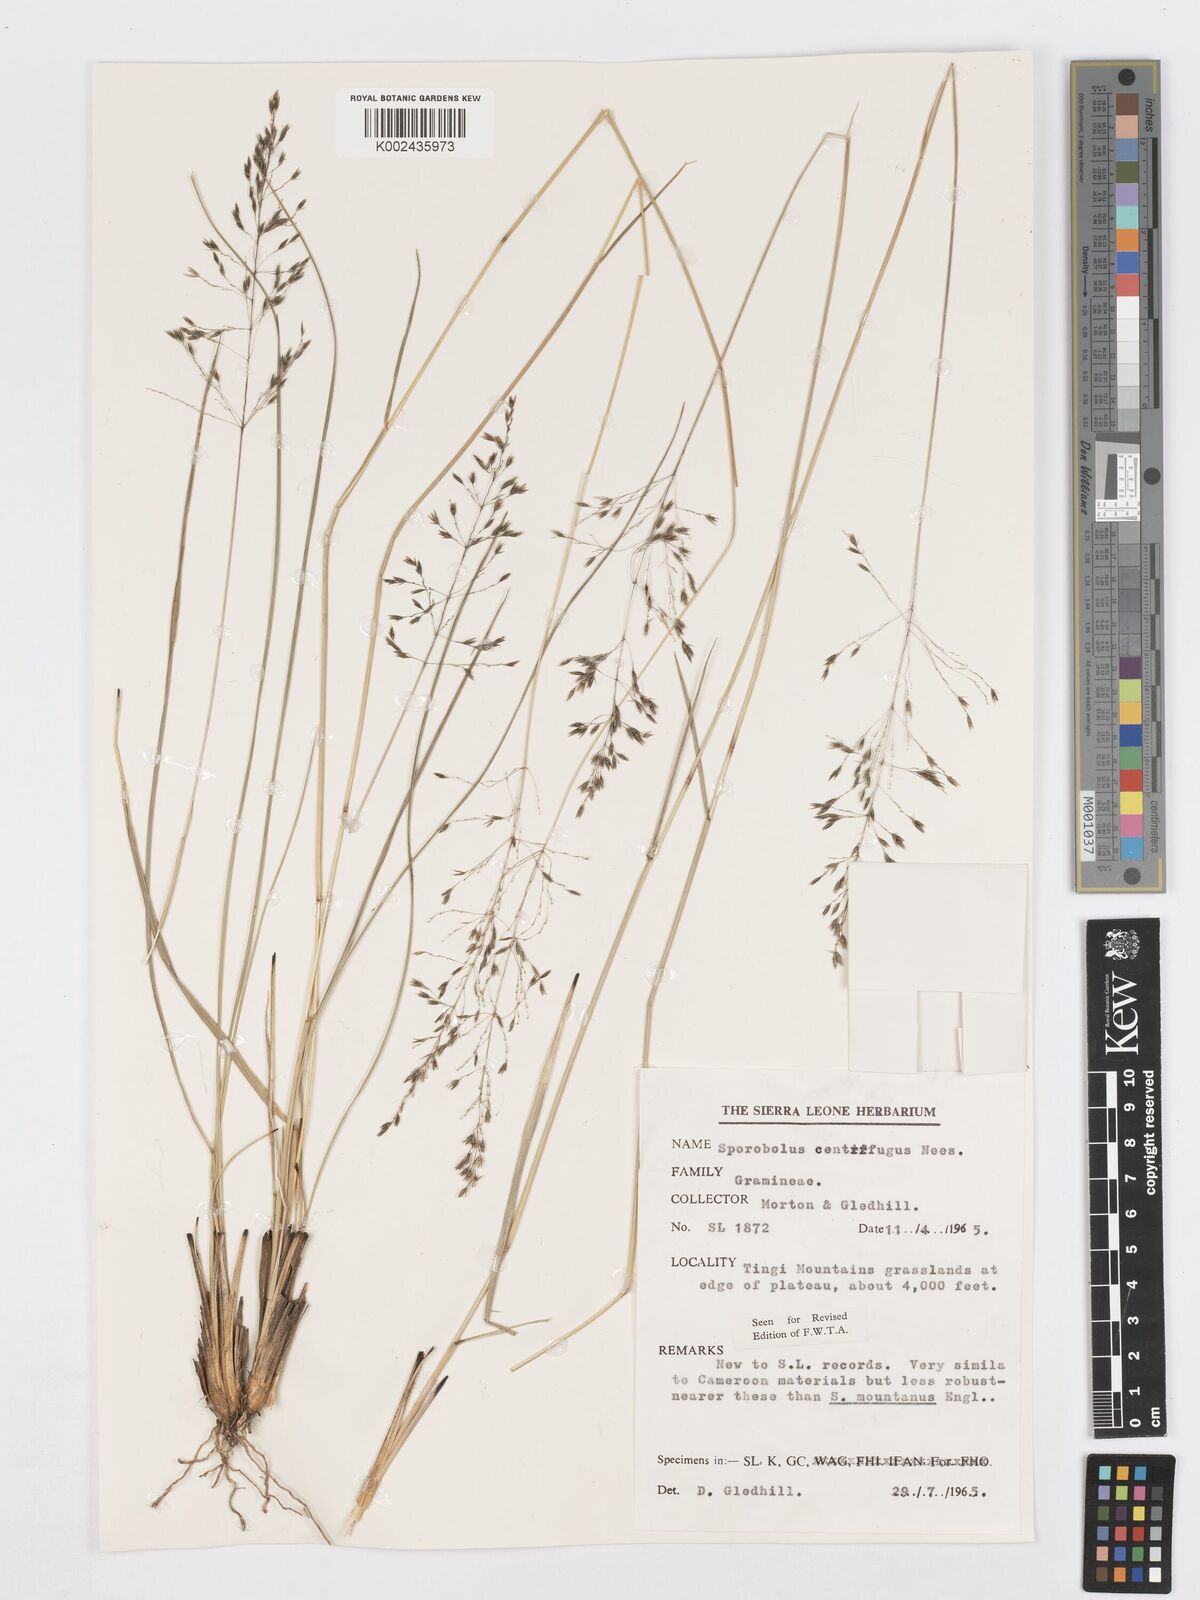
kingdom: Plantae
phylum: Tracheophyta
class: Liliopsida
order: Poales
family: Poaceae
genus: Sporobolus
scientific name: Sporobolus subulatus
